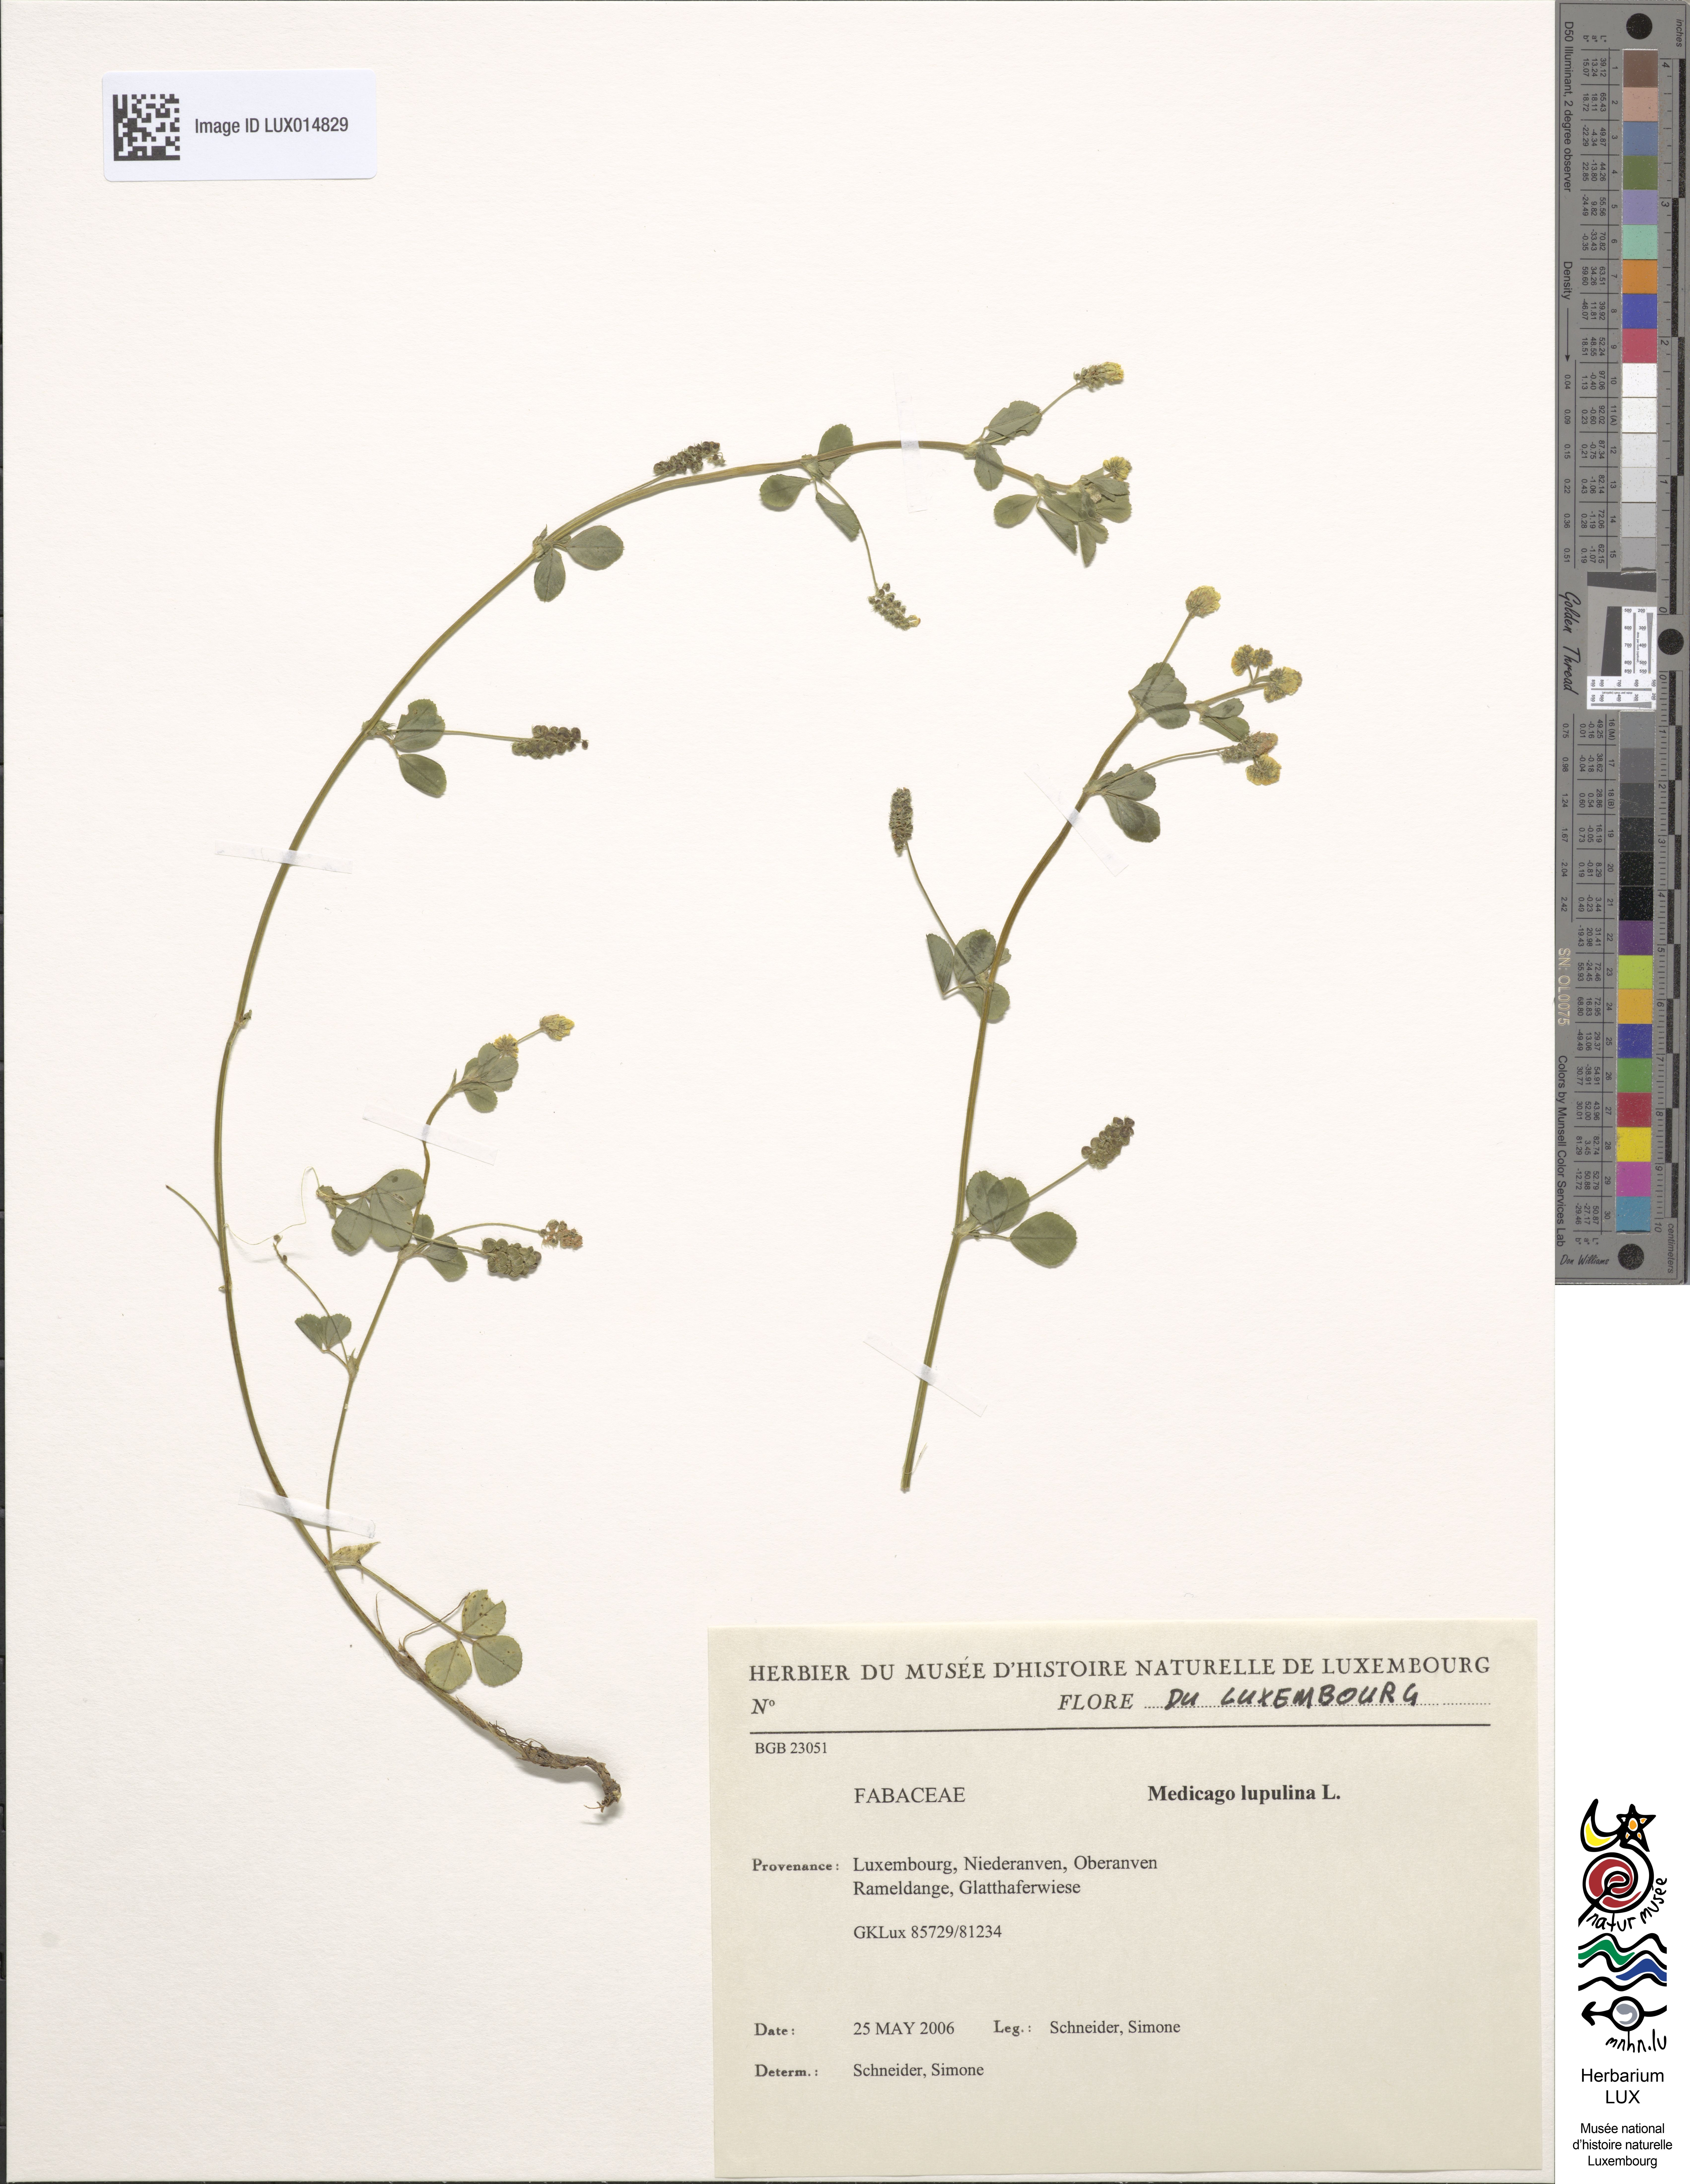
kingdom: Plantae
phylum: Tracheophyta
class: Magnoliopsida
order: Fabales
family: Fabaceae
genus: Medicago
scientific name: Medicago lupulina
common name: Black medick
